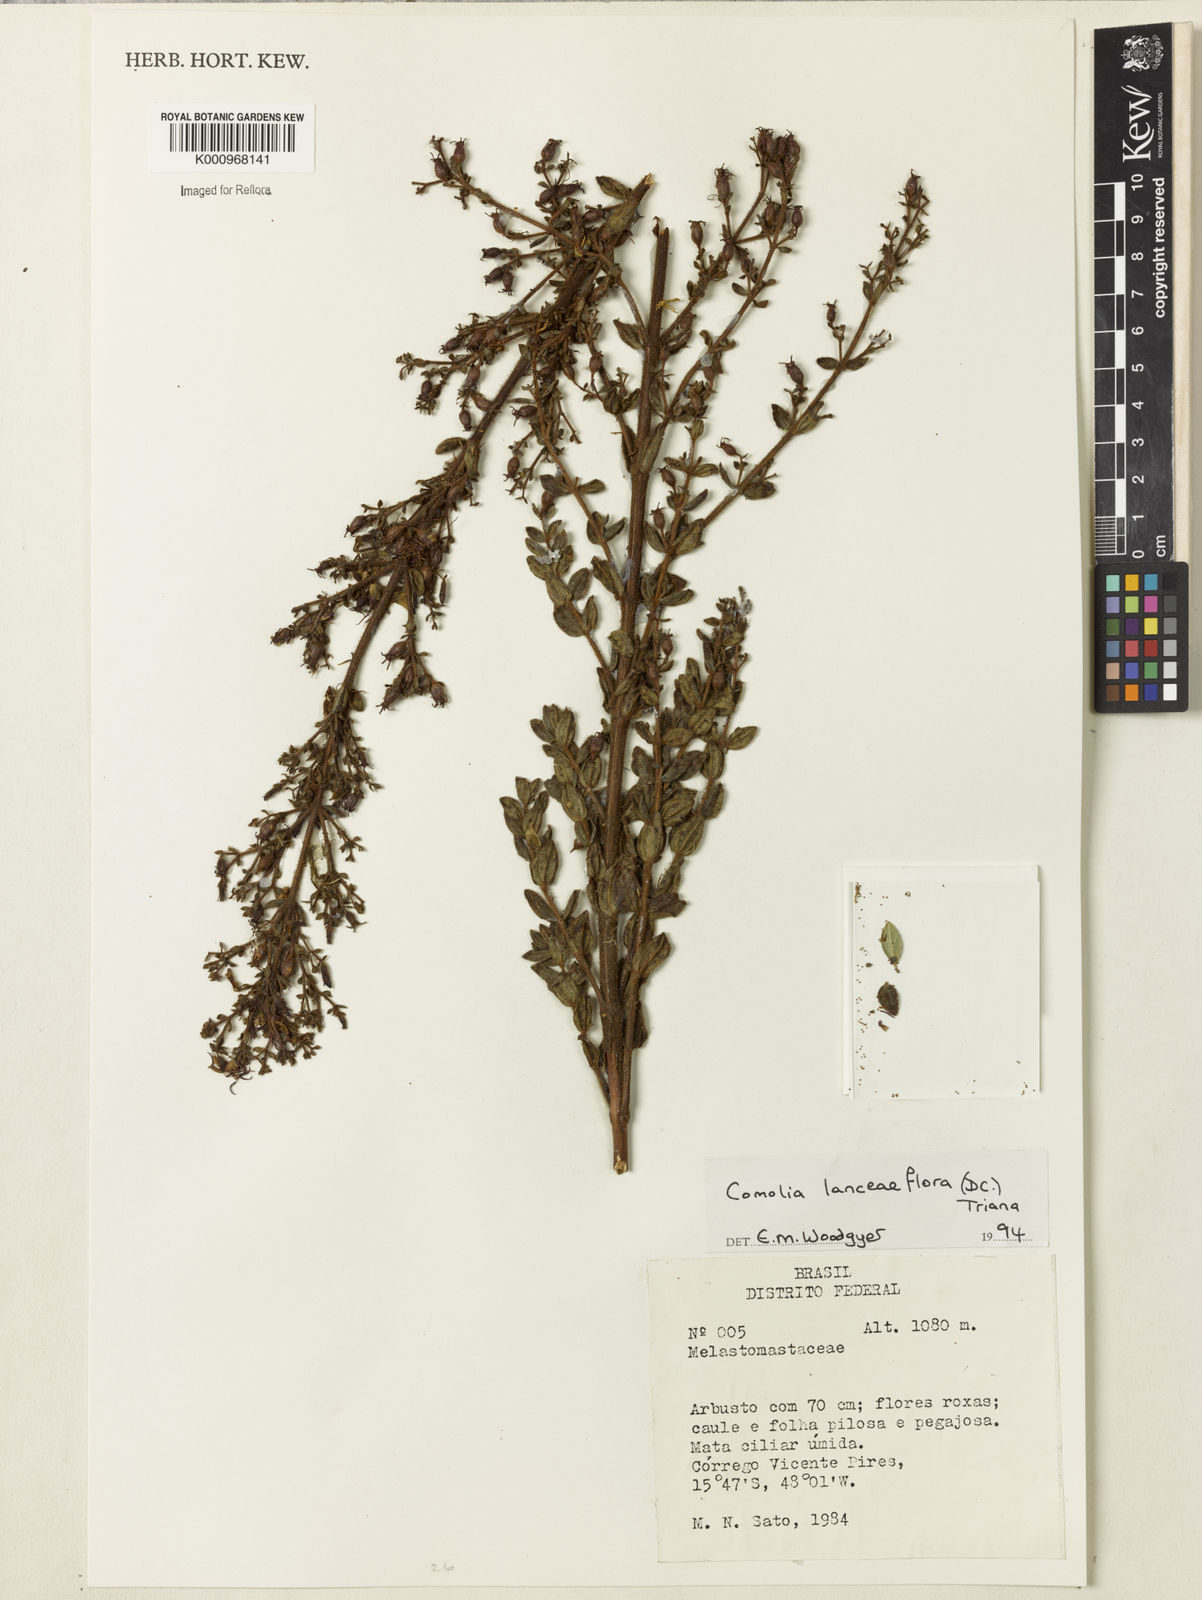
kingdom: Plantae
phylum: Tracheophyta
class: Magnoliopsida
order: Myrtales
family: Melastomataceae
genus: Fritzschia
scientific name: Fritzschia lanceiflora
